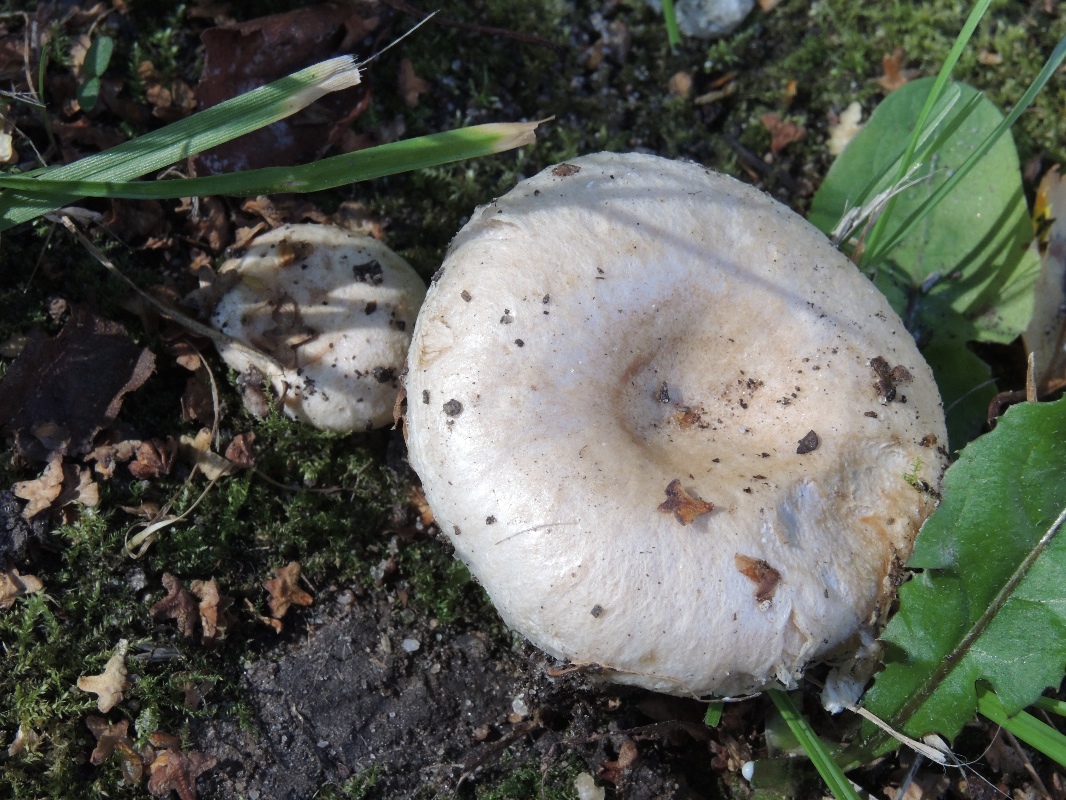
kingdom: Fungi
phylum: Basidiomycota
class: Agaricomycetes
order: Russulales
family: Russulaceae
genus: Lactarius
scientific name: Lactarius pubescens
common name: dunet mælkehat
